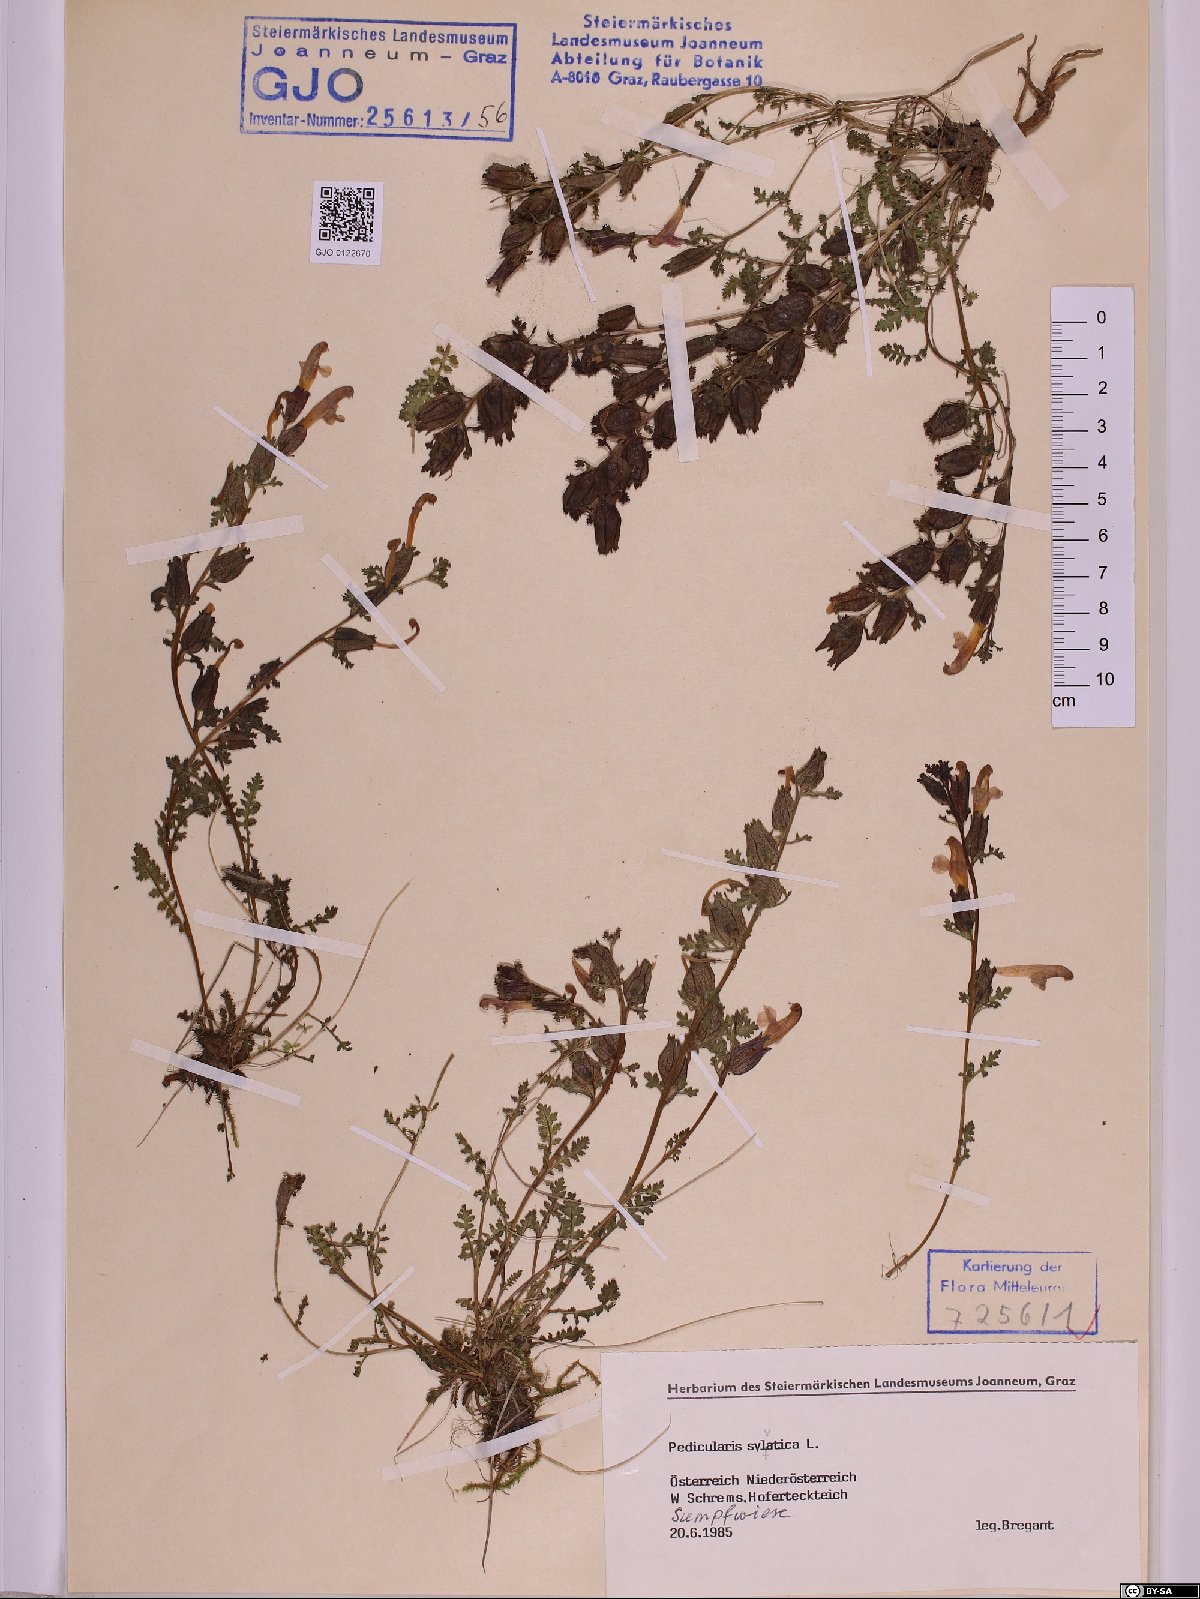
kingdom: Plantae
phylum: Tracheophyta
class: Magnoliopsida
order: Lamiales
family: Orobanchaceae
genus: Pedicularis
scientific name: Pedicularis sylvatica
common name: Lousewort
